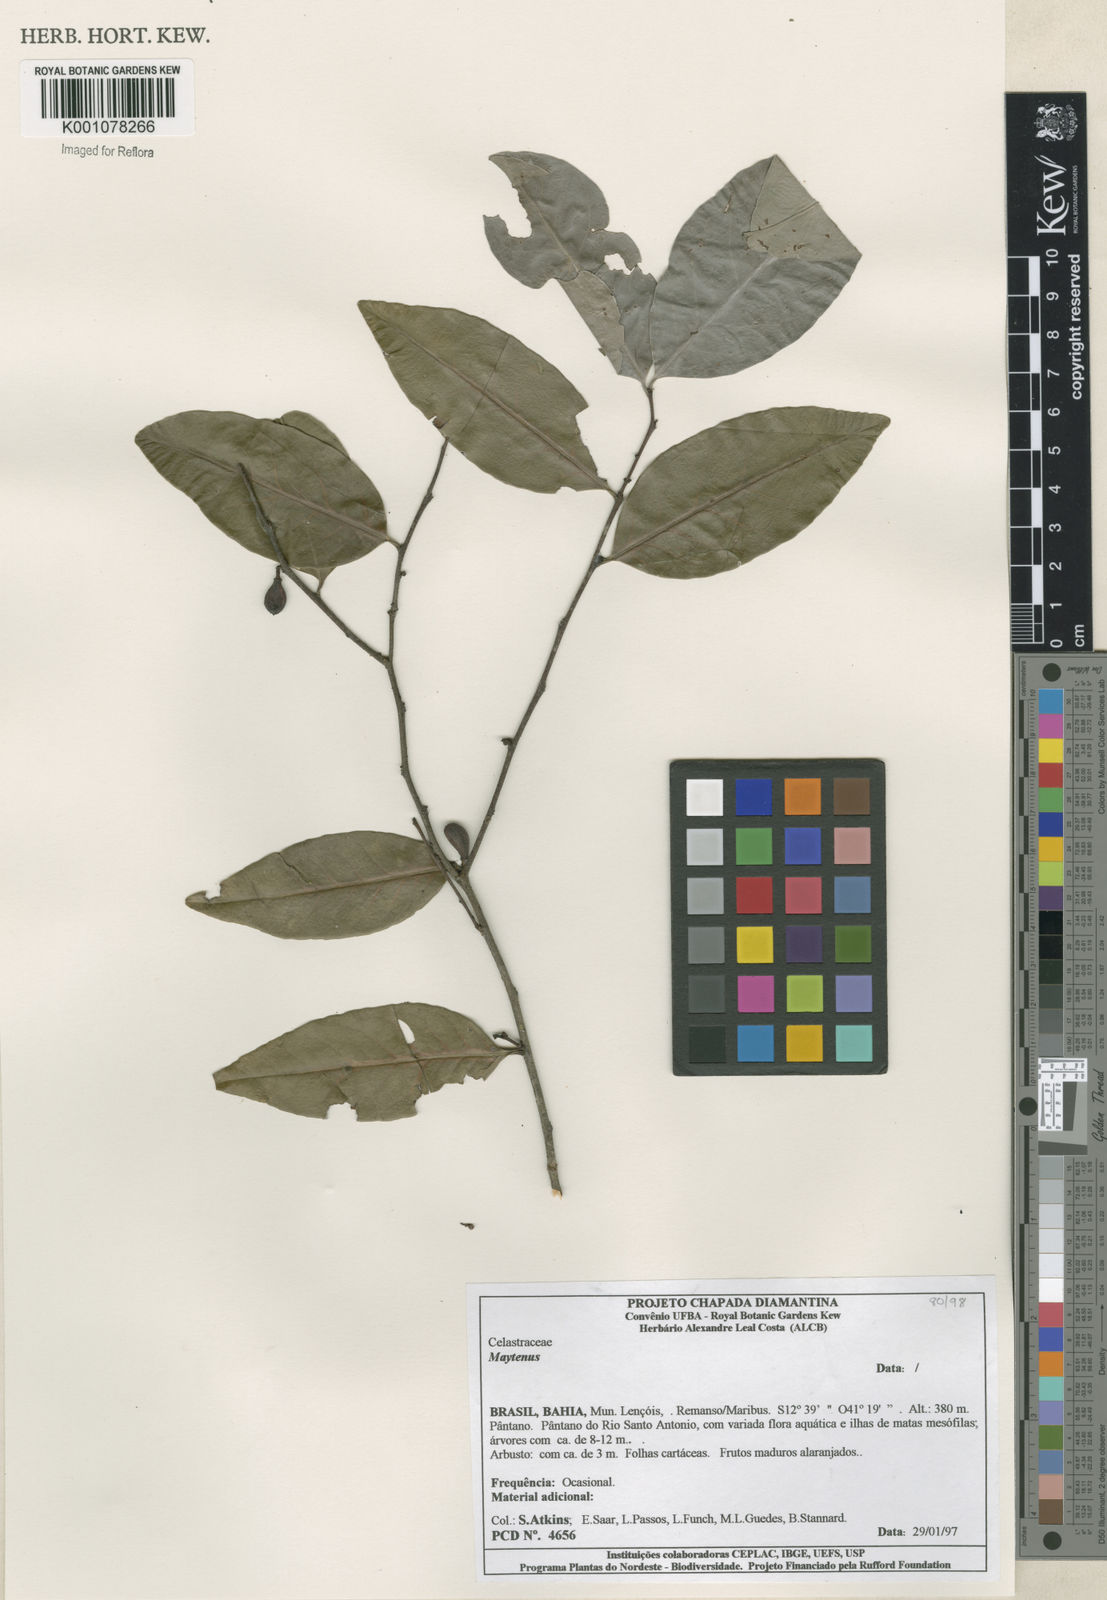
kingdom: Plantae
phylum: Tracheophyta
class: Magnoliopsida
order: Celastrales
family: Celastraceae
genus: Maytenus
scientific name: Maytenus
